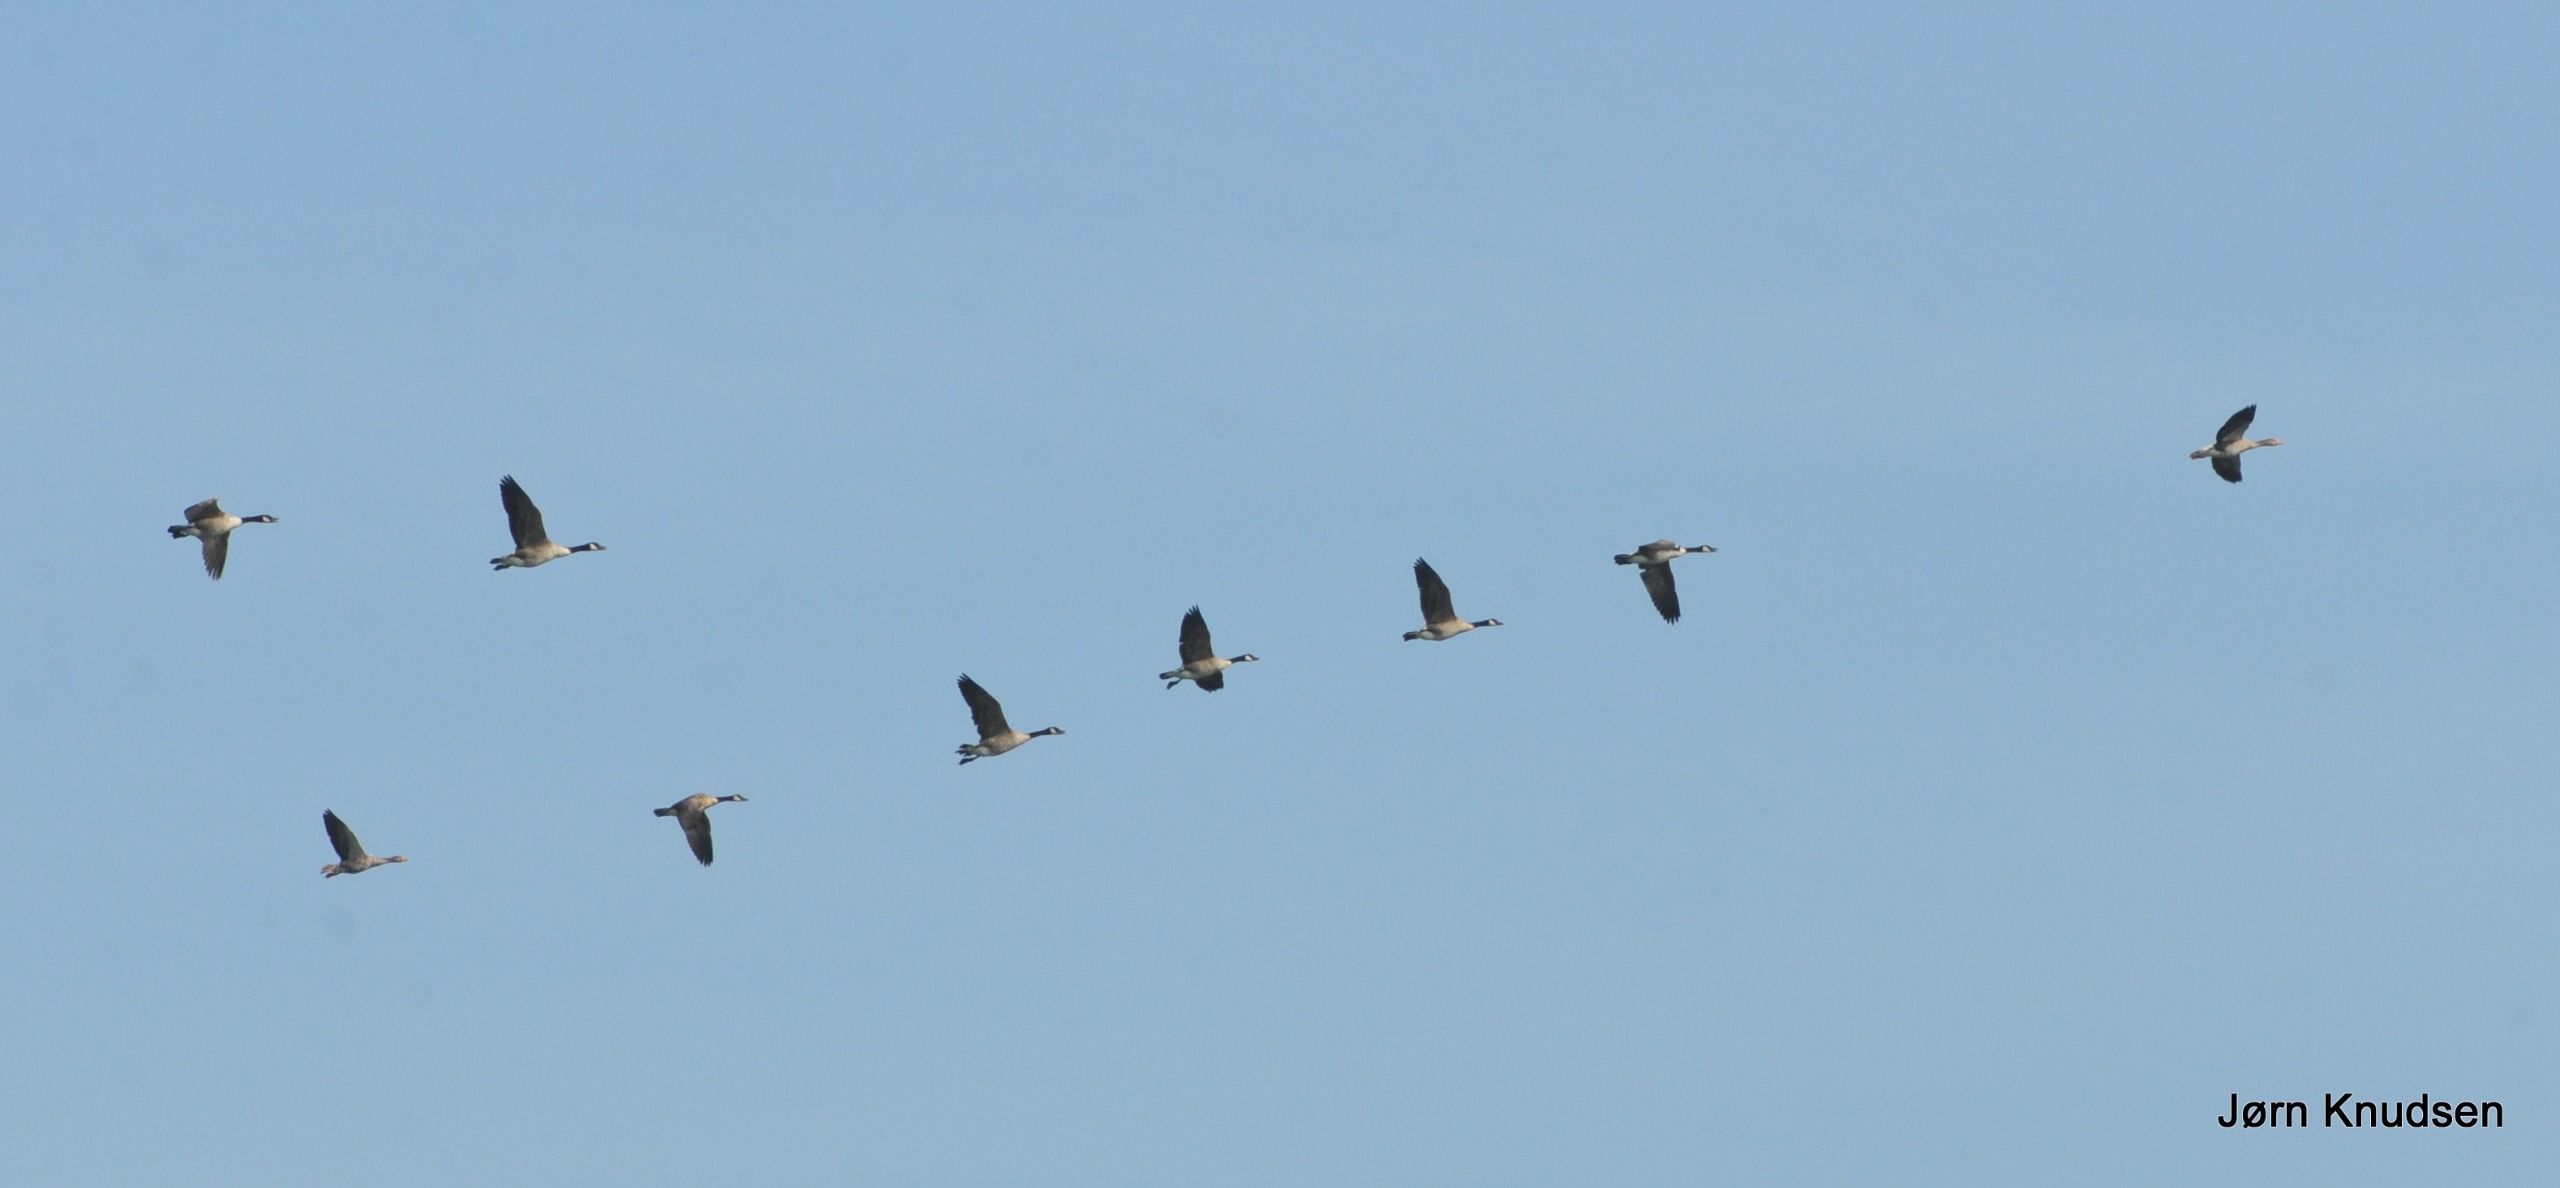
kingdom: Animalia
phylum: Chordata
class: Aves
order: Anseriformes
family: Anatidae
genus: Branta
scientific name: Branta canadensis
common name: Canadagås
